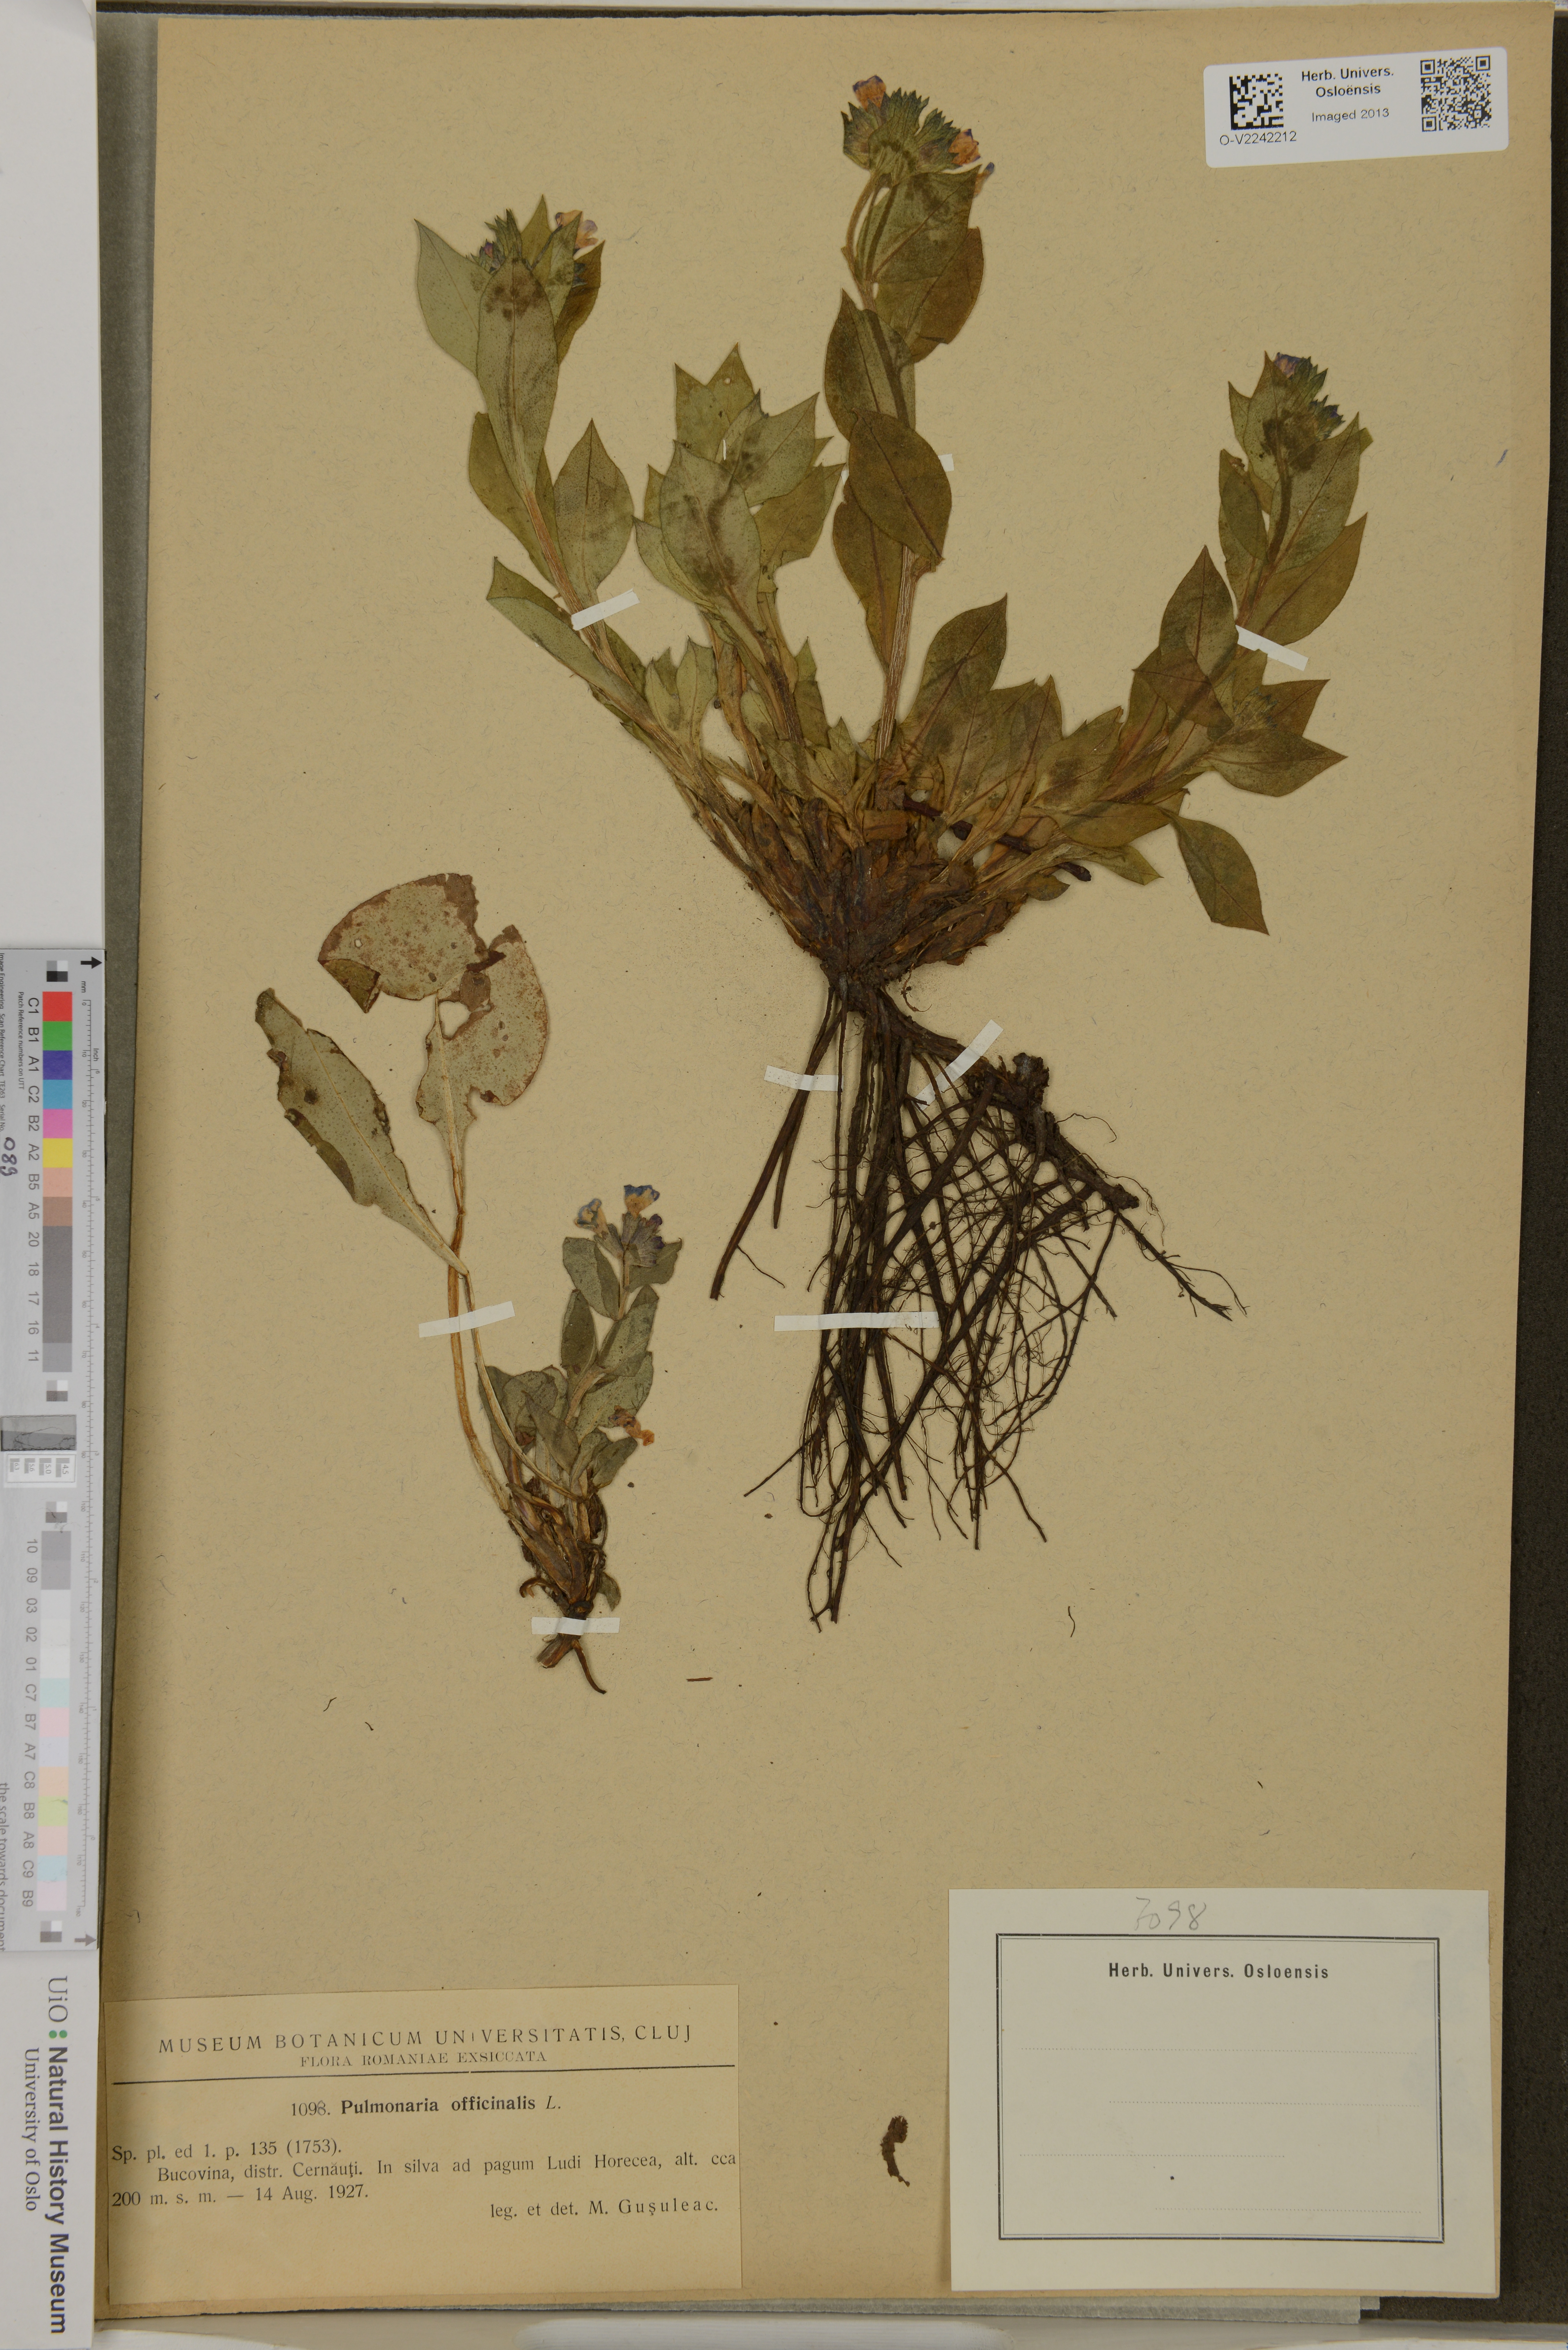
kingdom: Plantae
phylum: Tracheophyta
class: Magnoliopsida
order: Boraginales
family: Boraginaceae
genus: Pulmonaria
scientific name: Pulmonaria officinalis
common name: Lungwort
